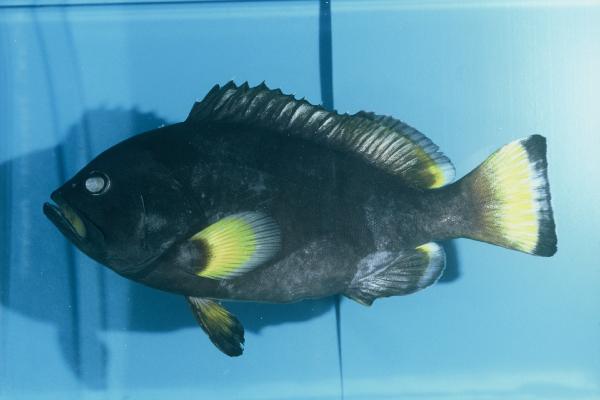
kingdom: Animalia
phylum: Chordata
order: Perciformes
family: Serranidae
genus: Epinephelus
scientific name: Epinephelus flavocaeruleus
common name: Blue and yellow grouper
